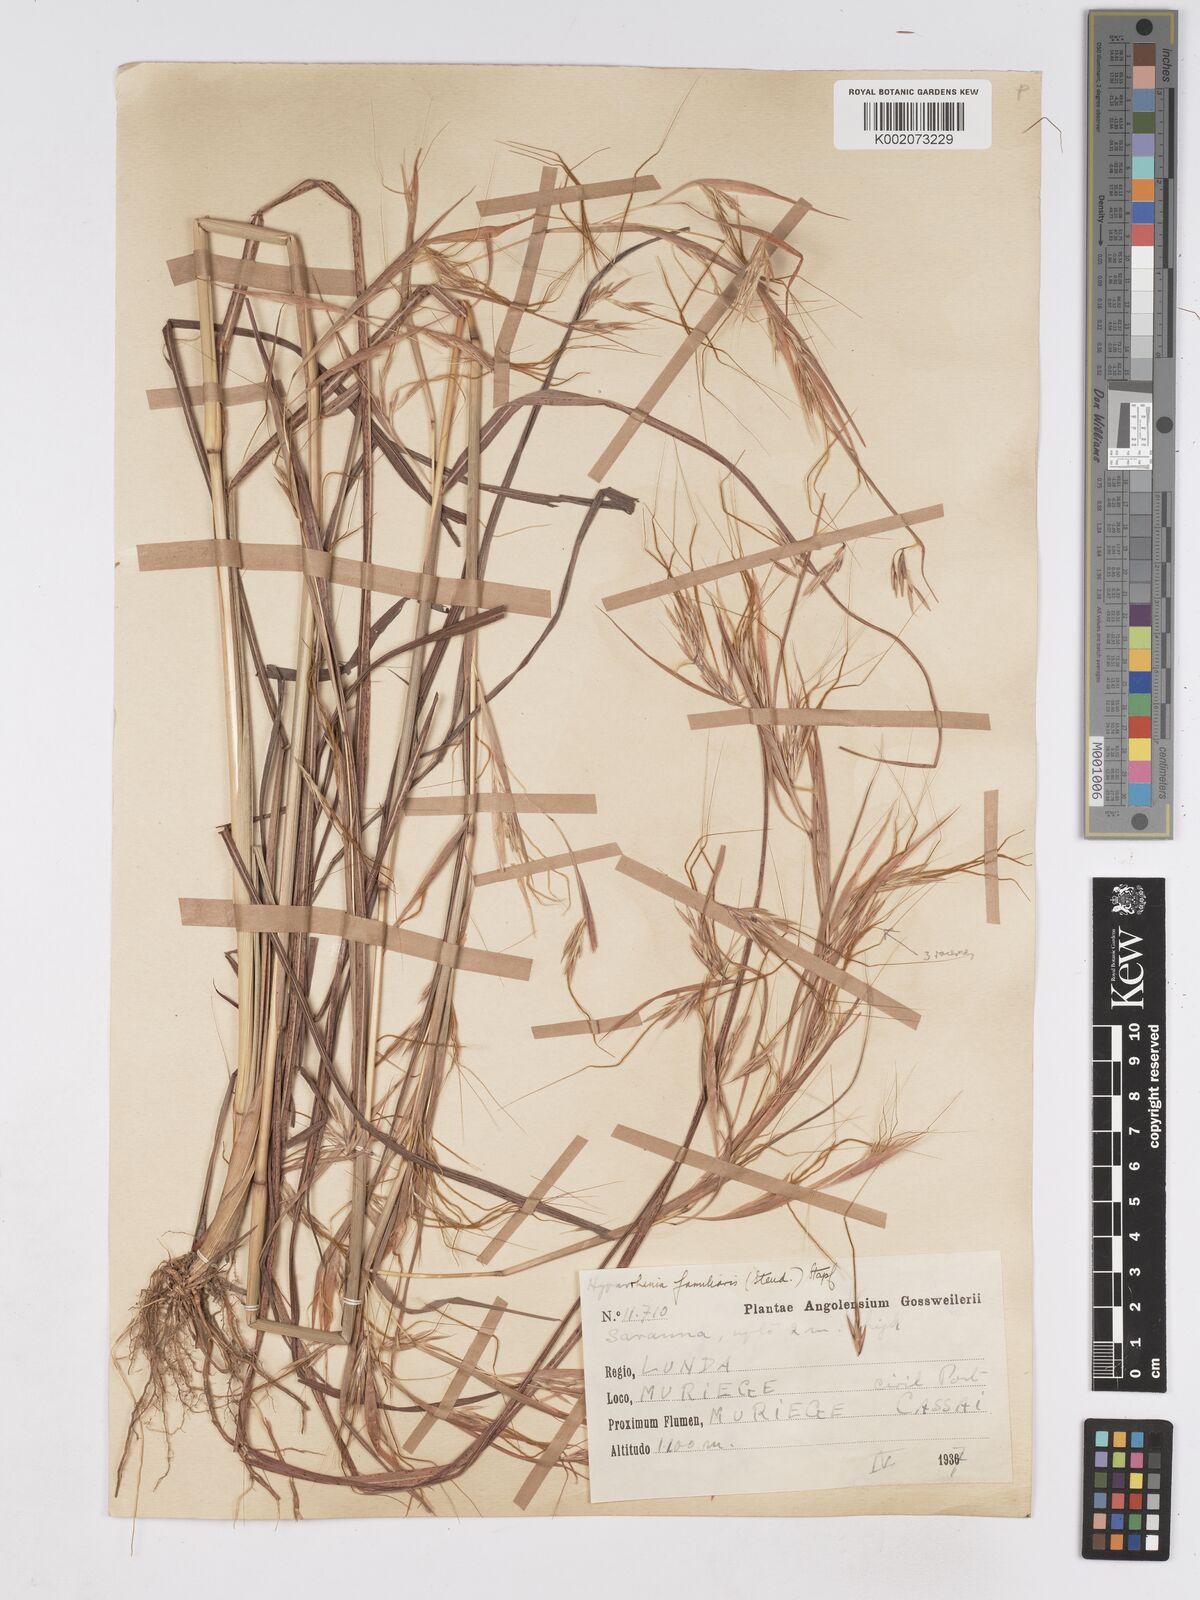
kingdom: Plantae
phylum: Tracheophyta
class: Liliopsida
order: Poales
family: Poaceae
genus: Hyparrhenia
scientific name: Hyparrhenia familiaris
